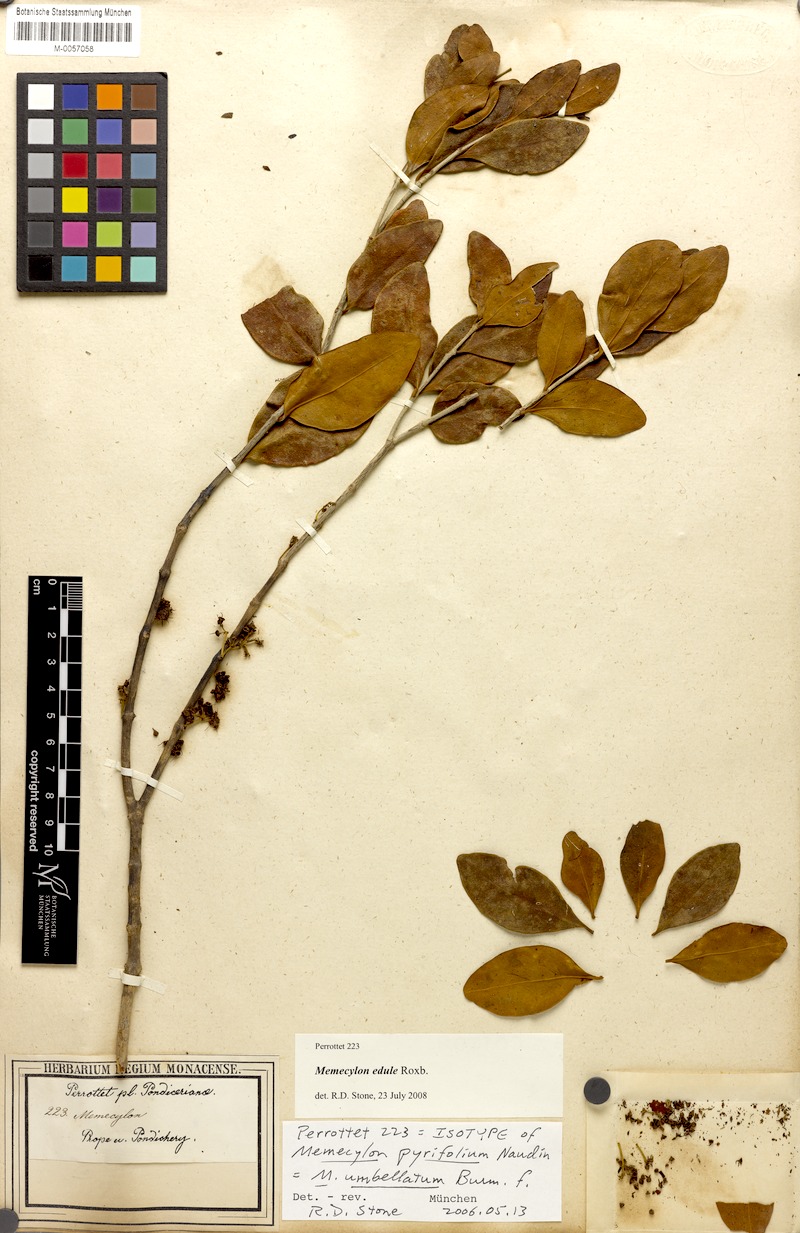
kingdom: Plantae
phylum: Tracheophyta
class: Magnoliopsida
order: Myrtales
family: Melastomataceae
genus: Memecylon
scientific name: Memecylon edule
